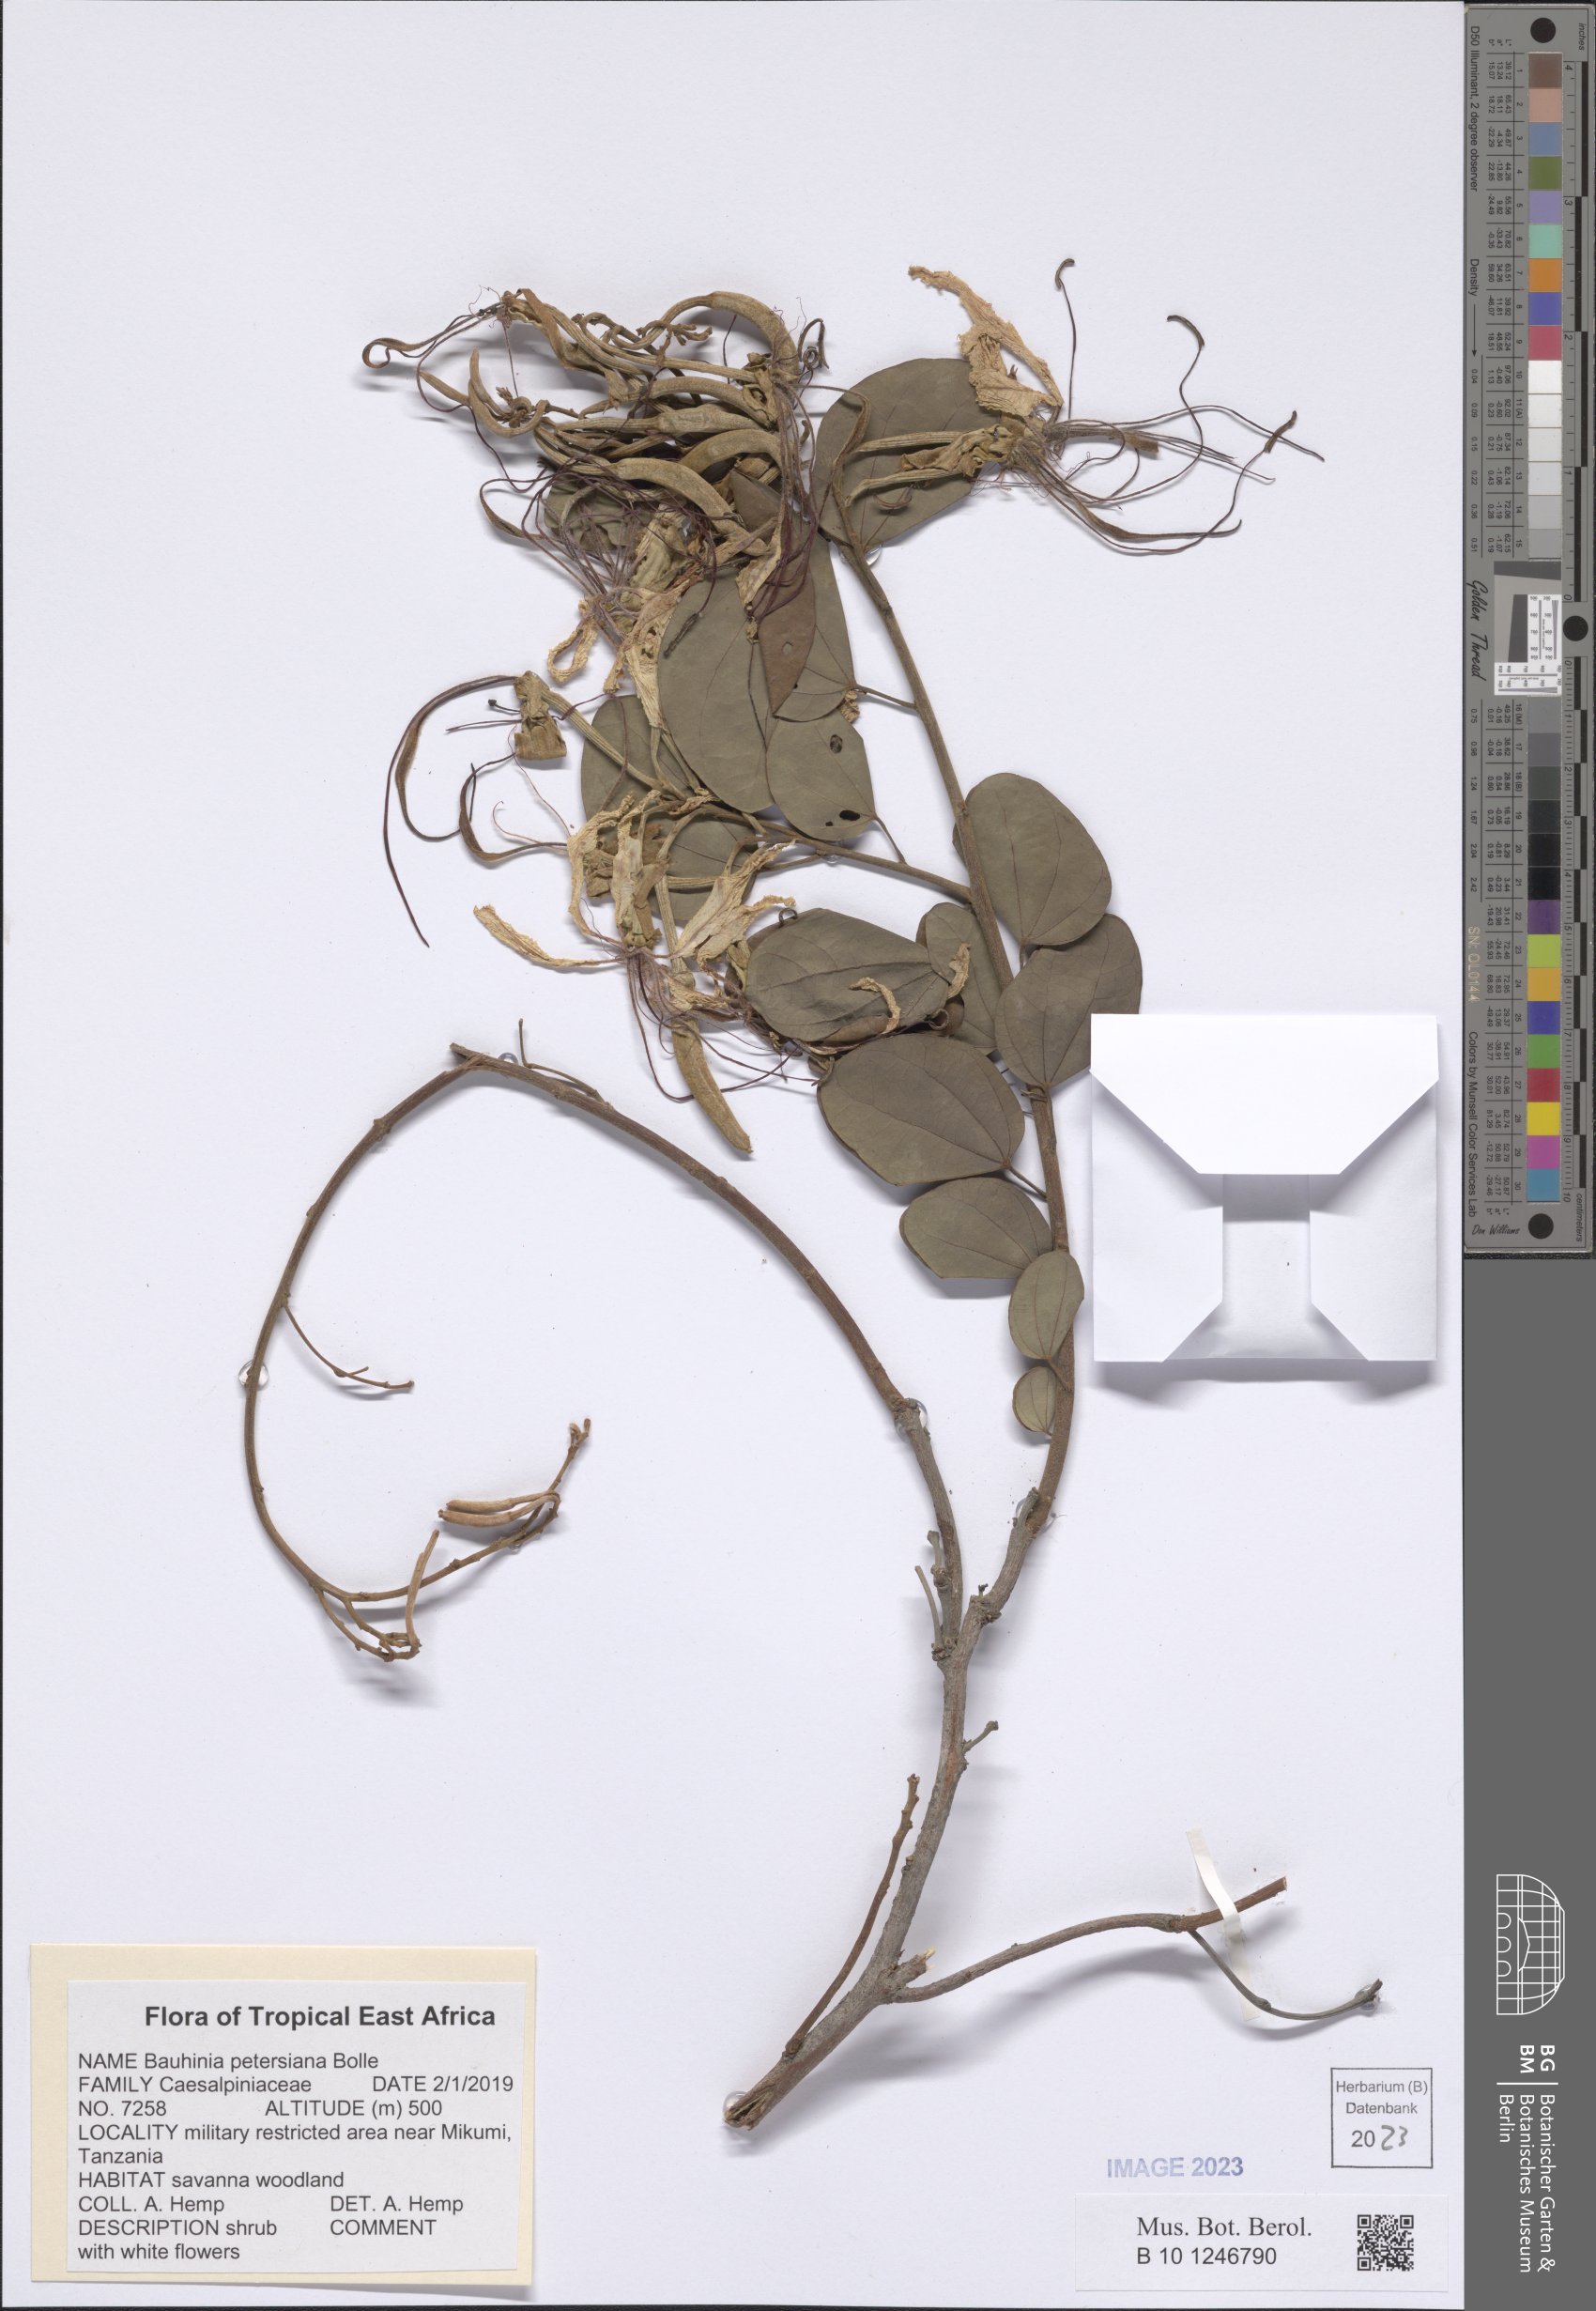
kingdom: Plantae
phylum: Tracheophyta
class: Magnoliopsida
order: Fabales
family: Fabaceae
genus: Bauhinia
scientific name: Bauhinia petersiana
